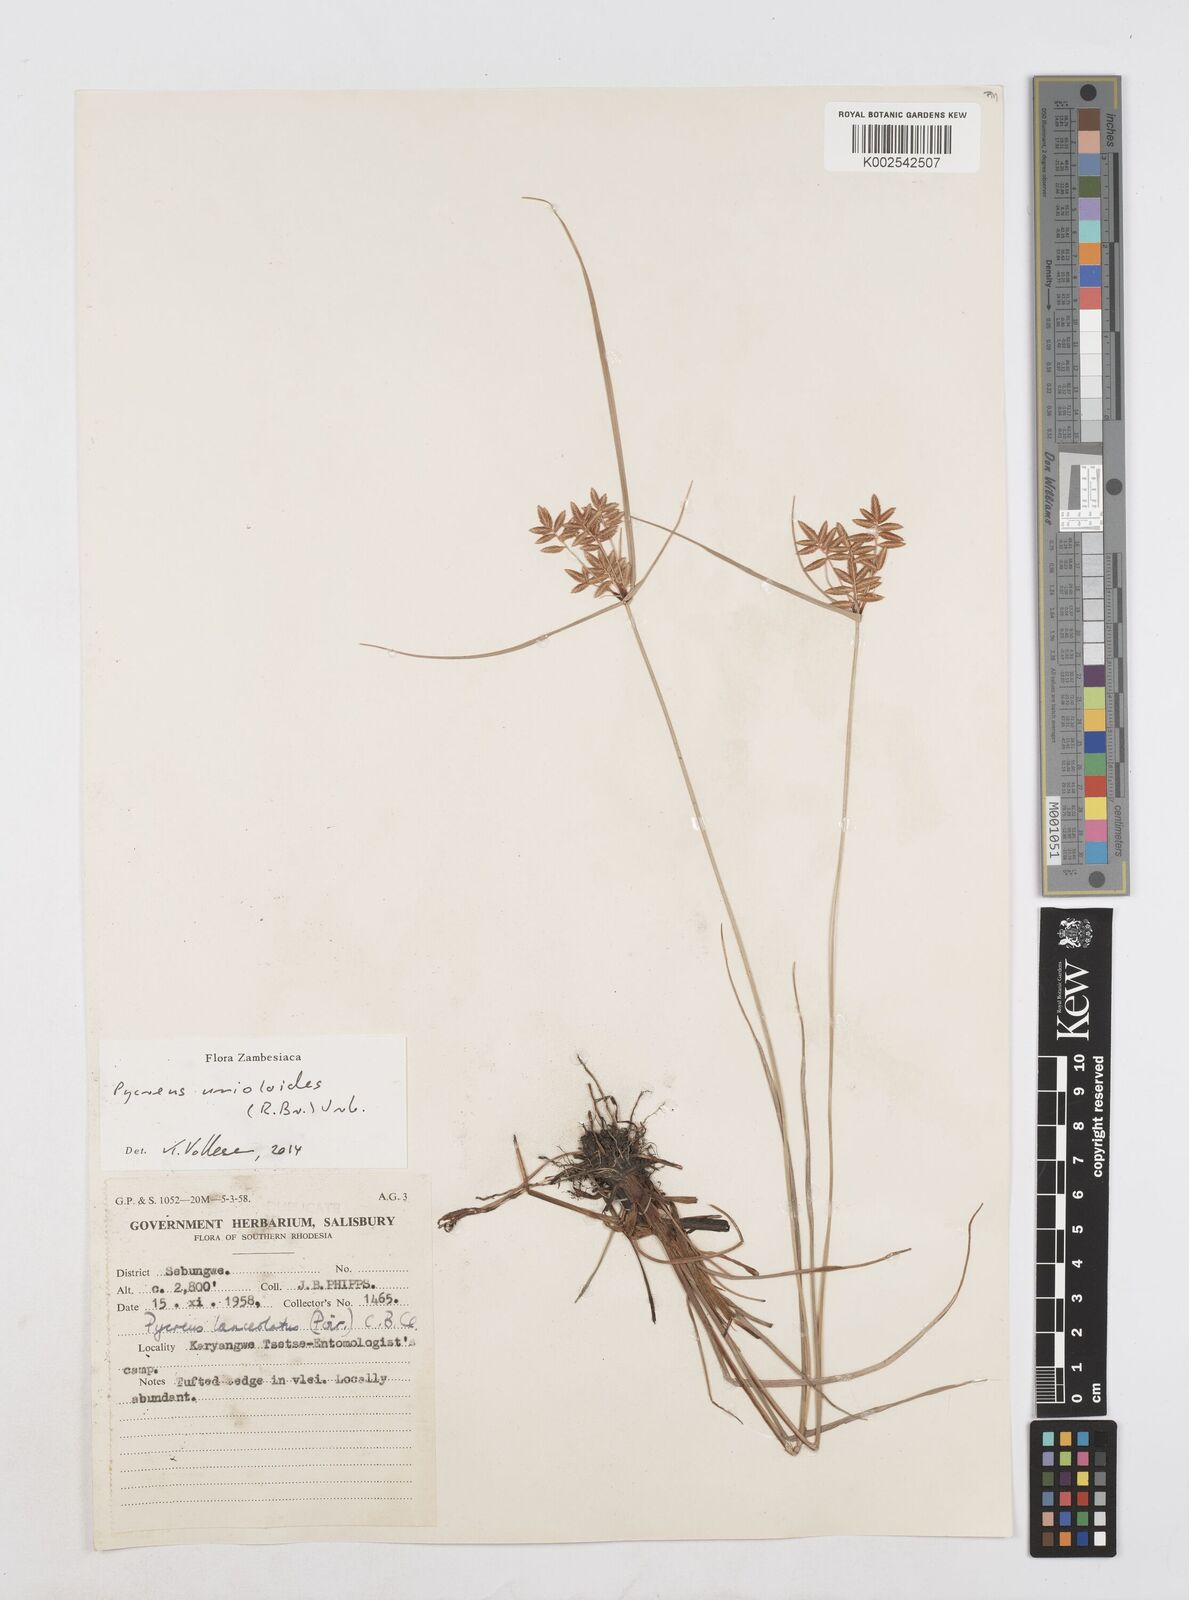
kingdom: Plantae
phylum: Tracheophyta
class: Liliopsida
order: Poales
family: Cyperaceae
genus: Cyperus
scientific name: Cyperus unioloides
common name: Uniola flatsedge
